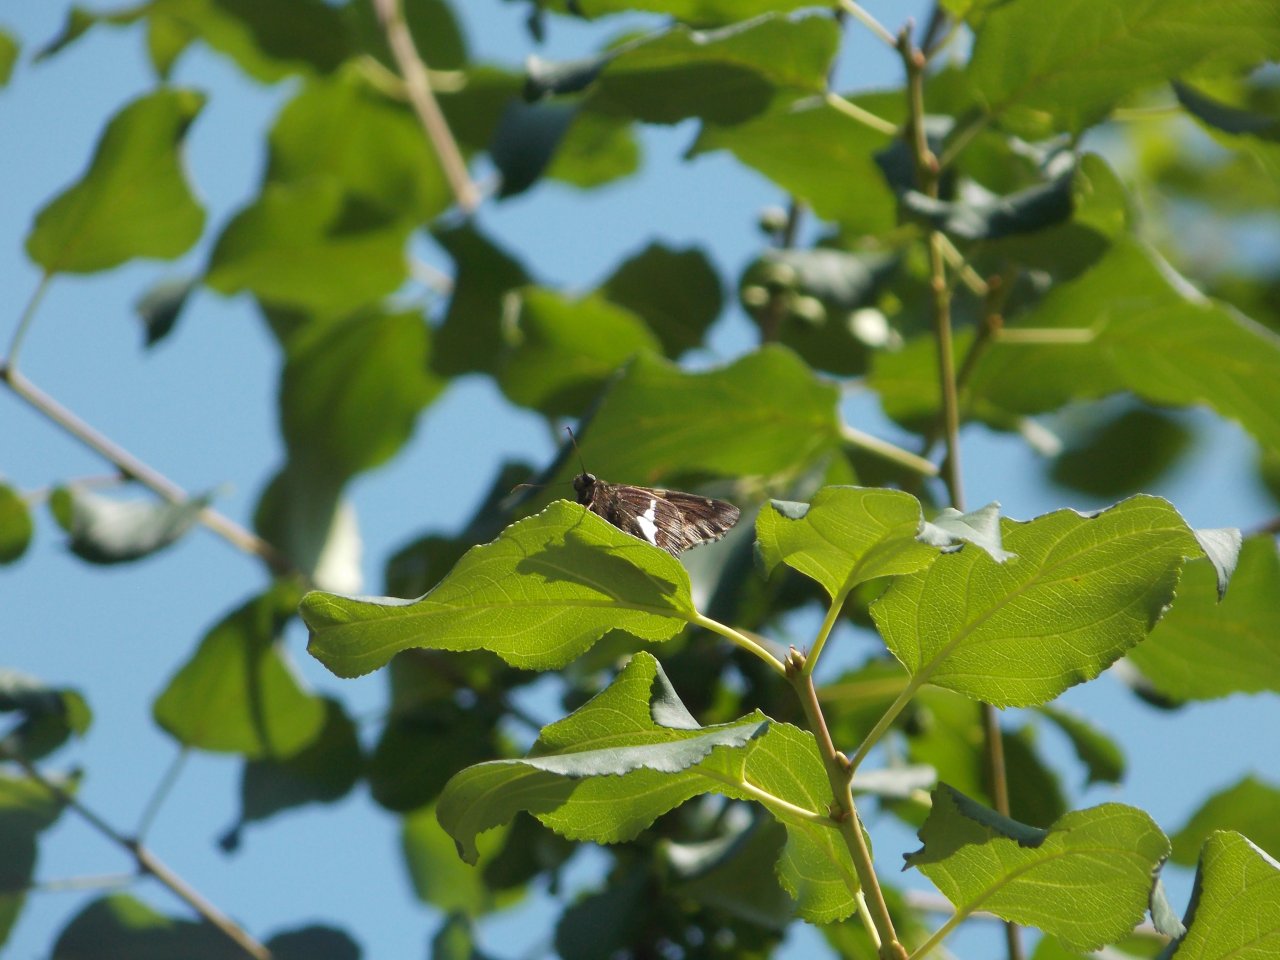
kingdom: Animalia
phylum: Arthropoda
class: Insecta
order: Lepidoptera
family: Hesperiidae
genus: Epargyreus
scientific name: Epargyreus clarus
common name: Silver-spotted Skipper
